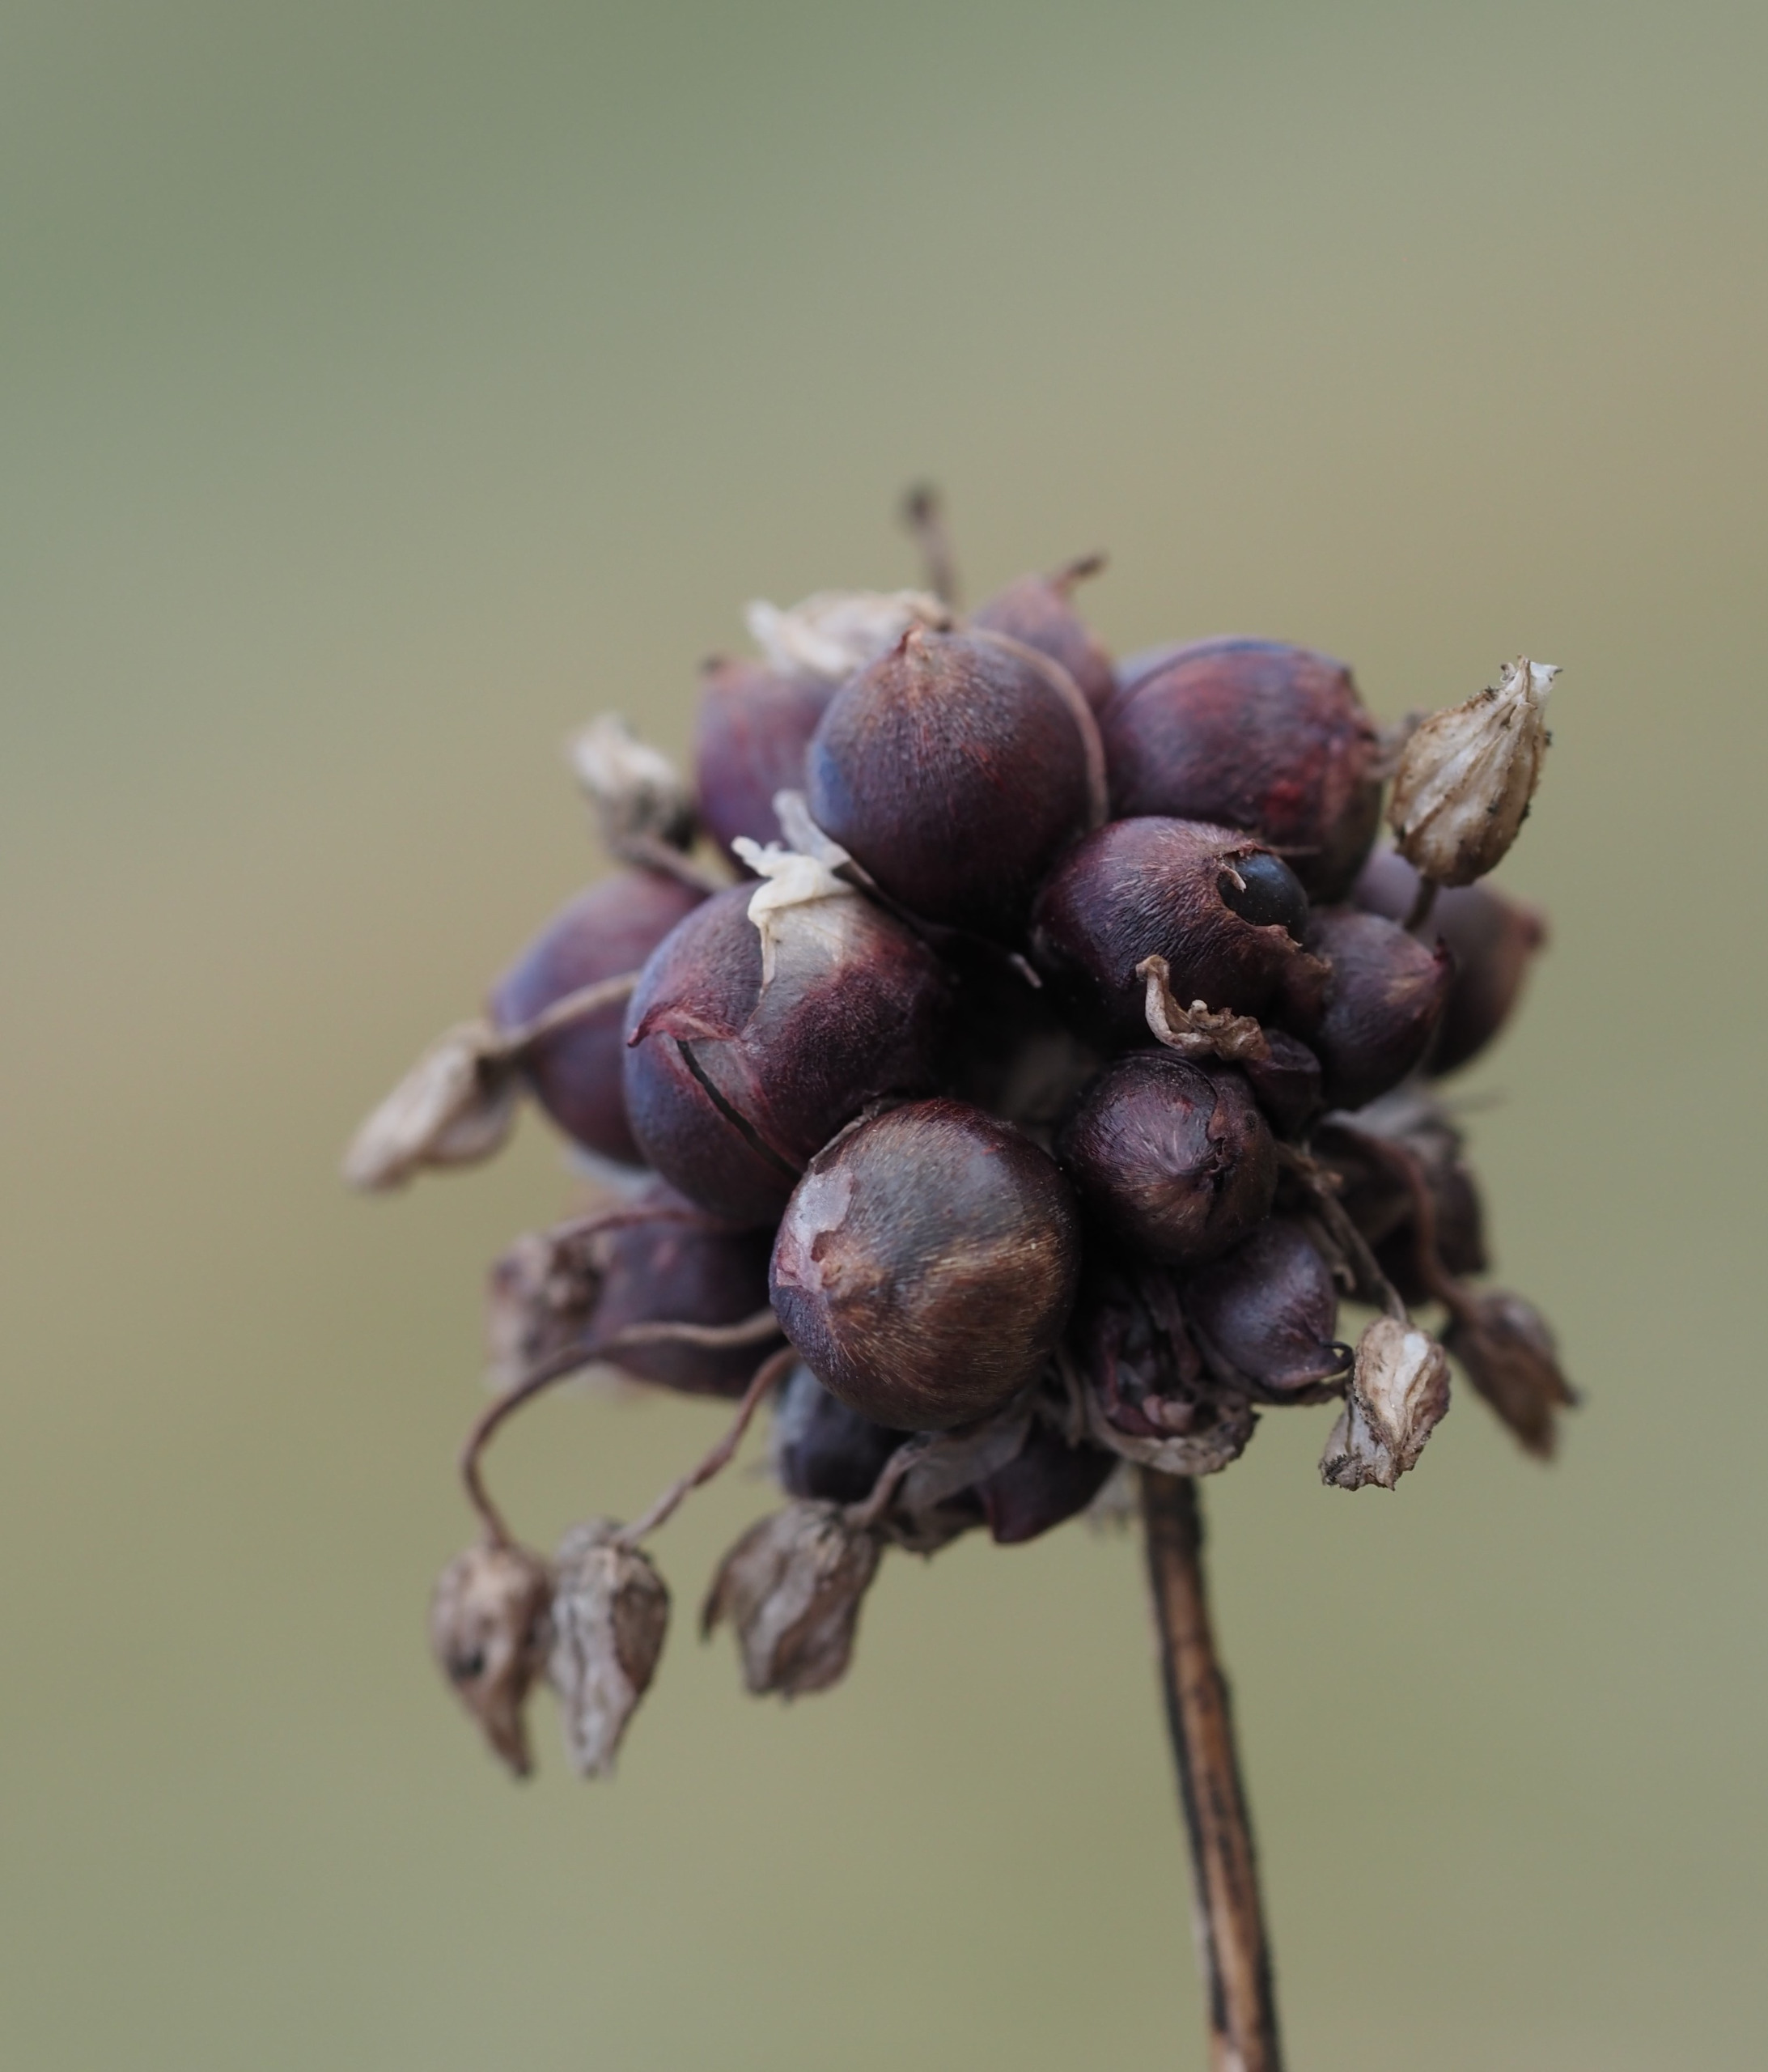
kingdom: Plantae
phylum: Tracheophyta
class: Liliopsida
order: Asparagales
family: Amaryllidaceae
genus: Allium
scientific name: Allium scorodoprasum
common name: Skov-løg
